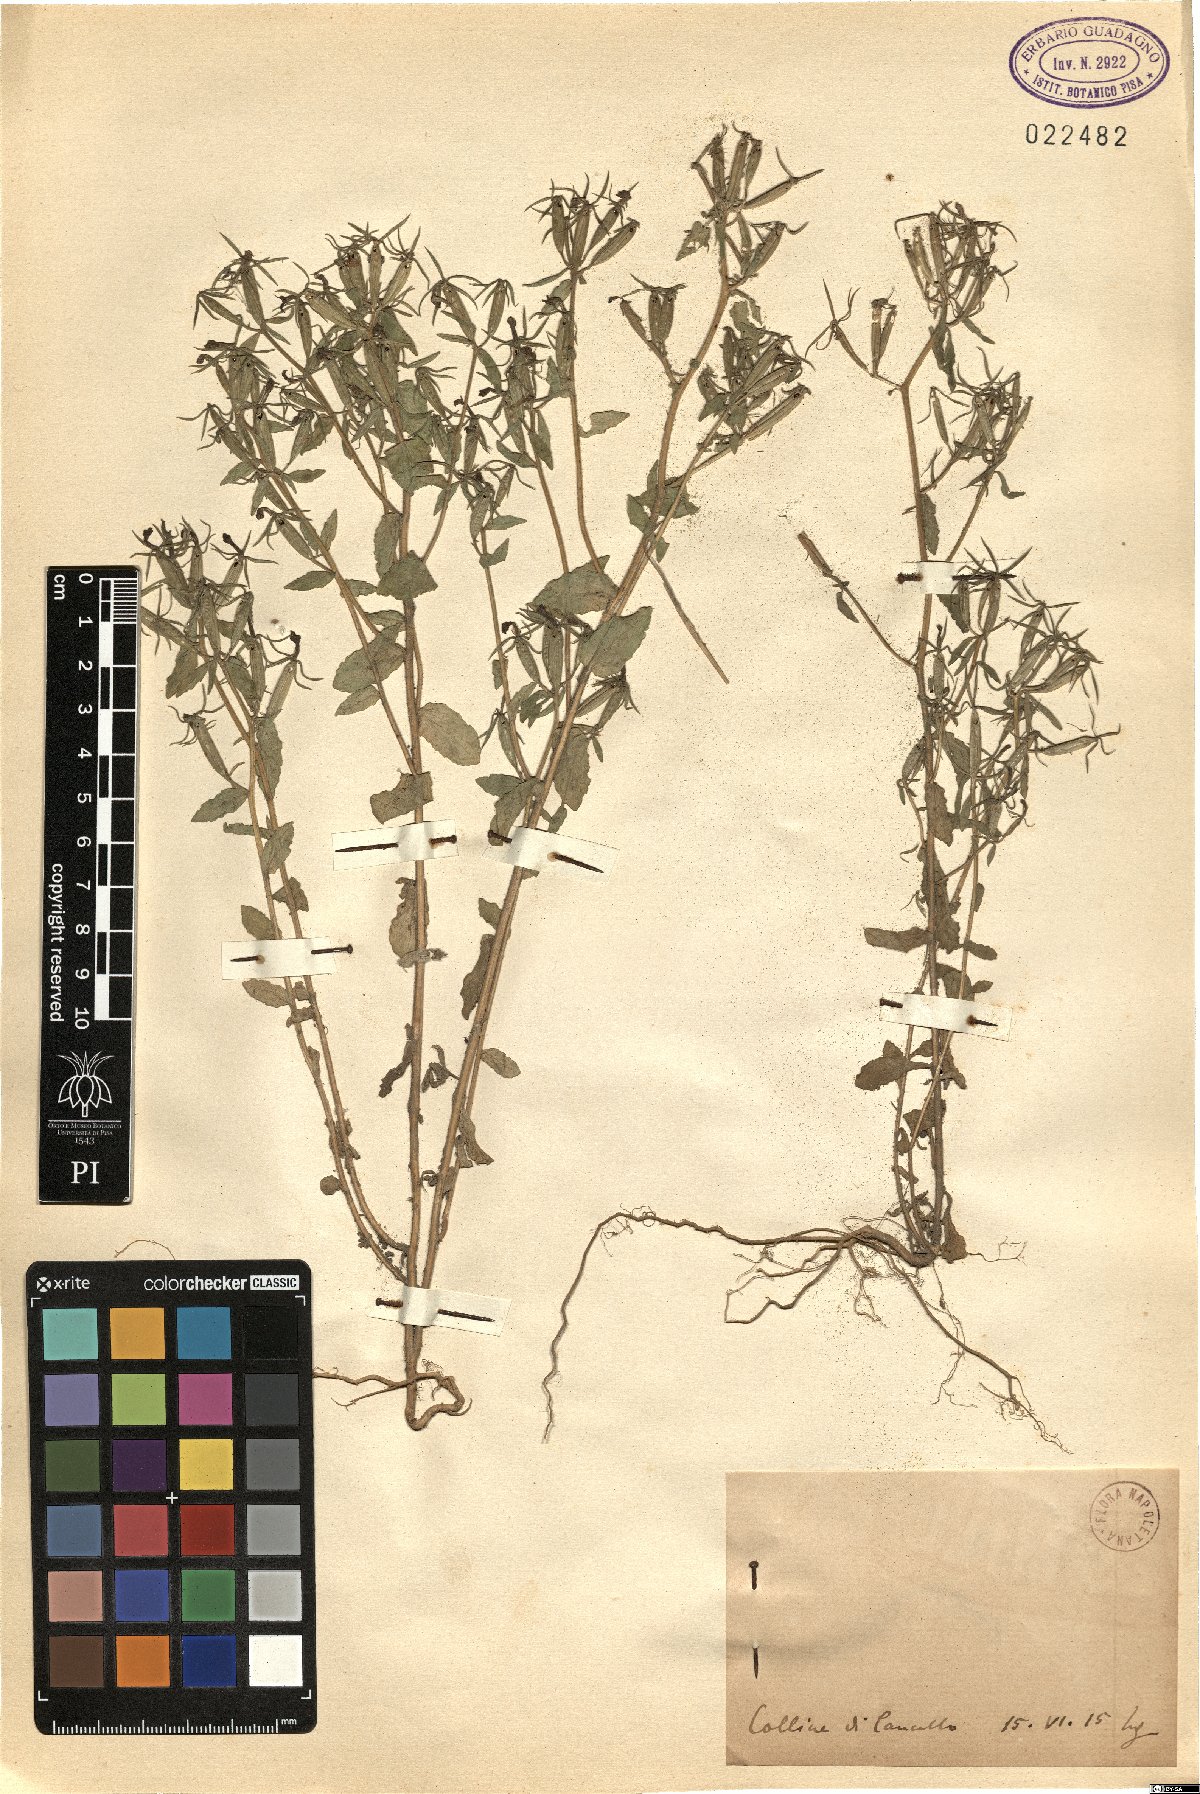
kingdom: Plantae
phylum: Tracheophyta
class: Magnoliopsida
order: Asterales
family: Campanulaceae
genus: Specularia
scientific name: Specularia
